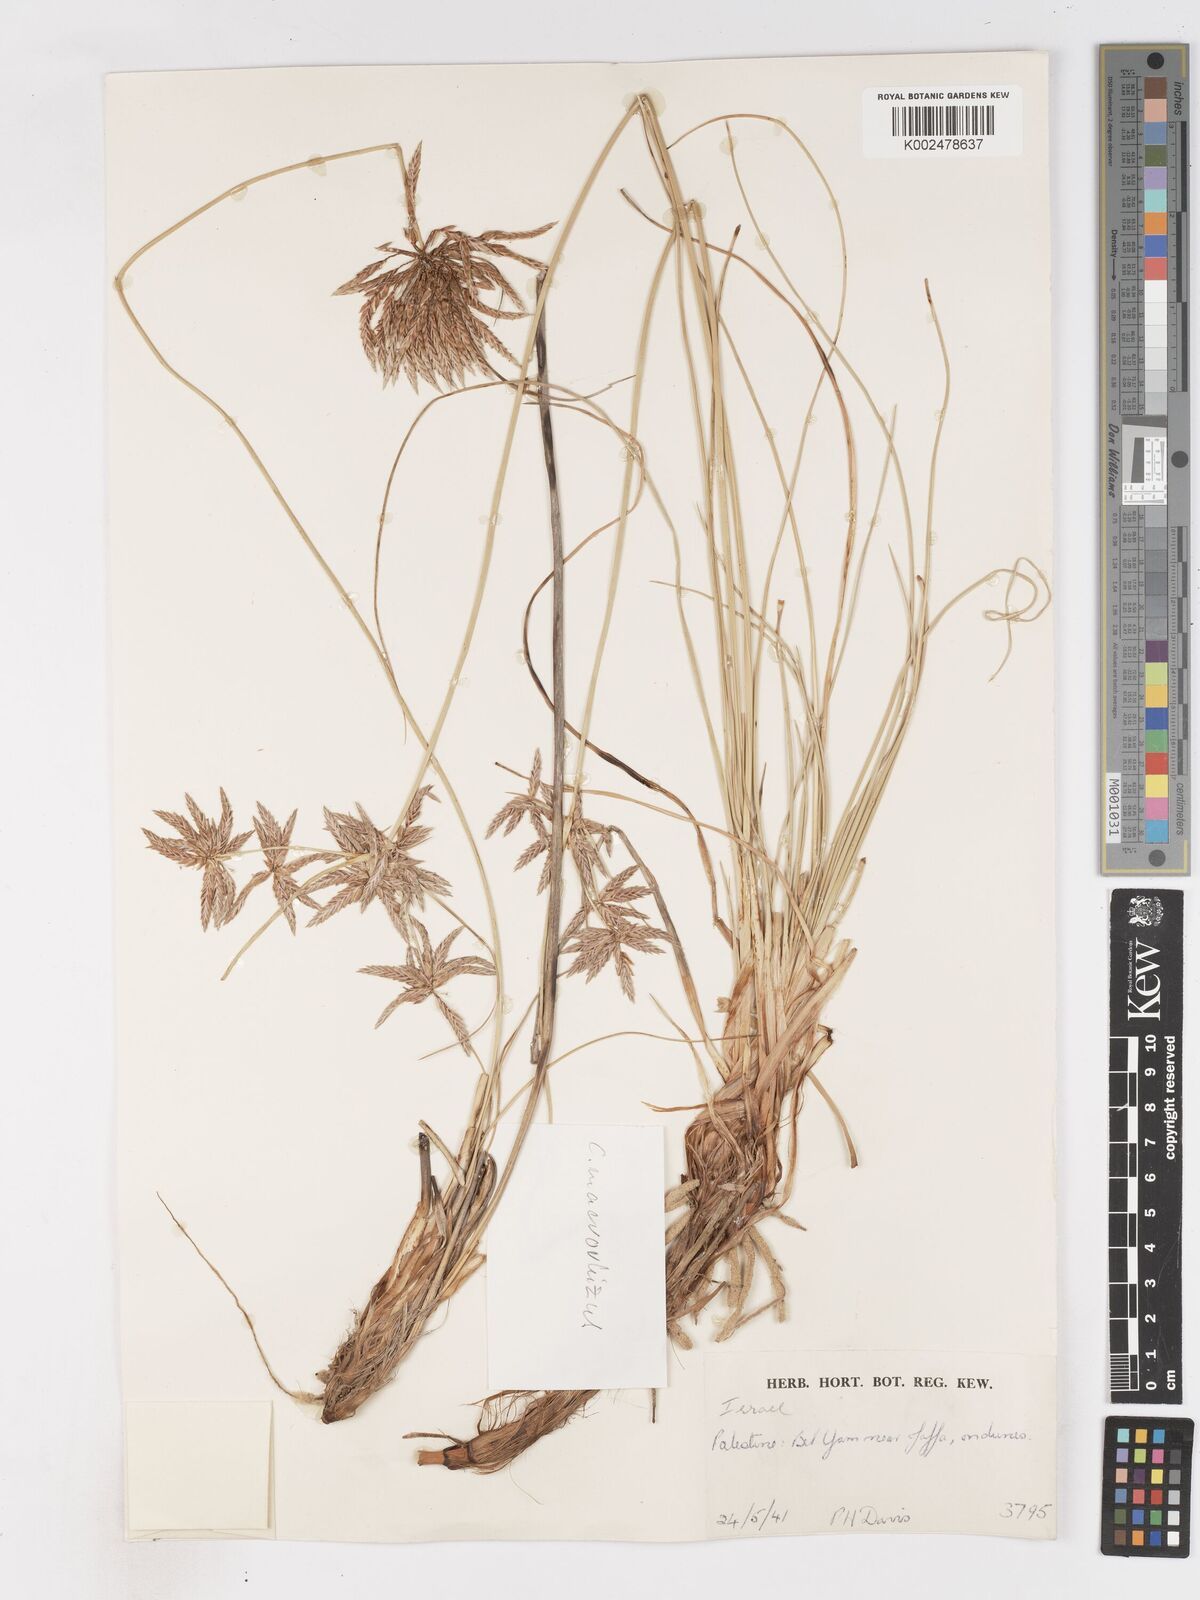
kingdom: Plantae
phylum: Tracheophyta
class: Liliopsida
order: Poales
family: Cyperaceae
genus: Cyperus
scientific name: Cyperus conglomeratus
